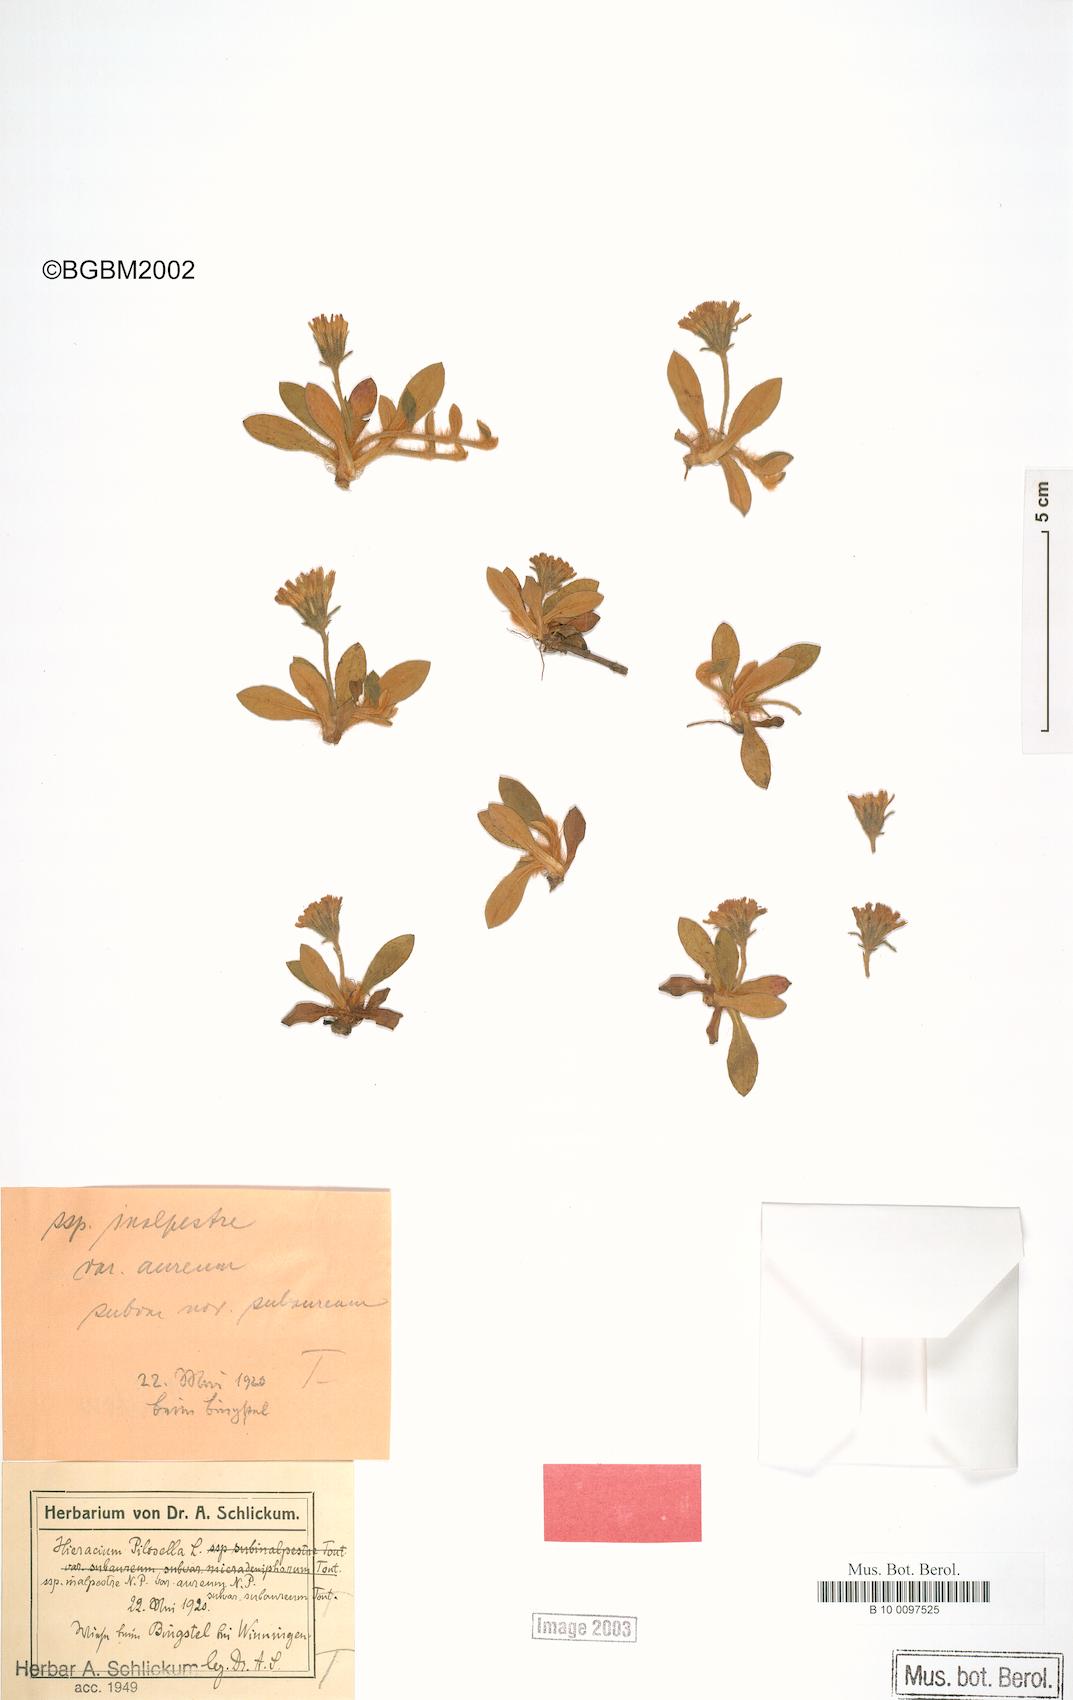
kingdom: Plantae
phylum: Tracheophyta
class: Magnoliopsida
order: Asterales
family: Asteraceae
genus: Pilosella
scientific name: Pilosella officinarum
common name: Mouse-ear hawkweed
